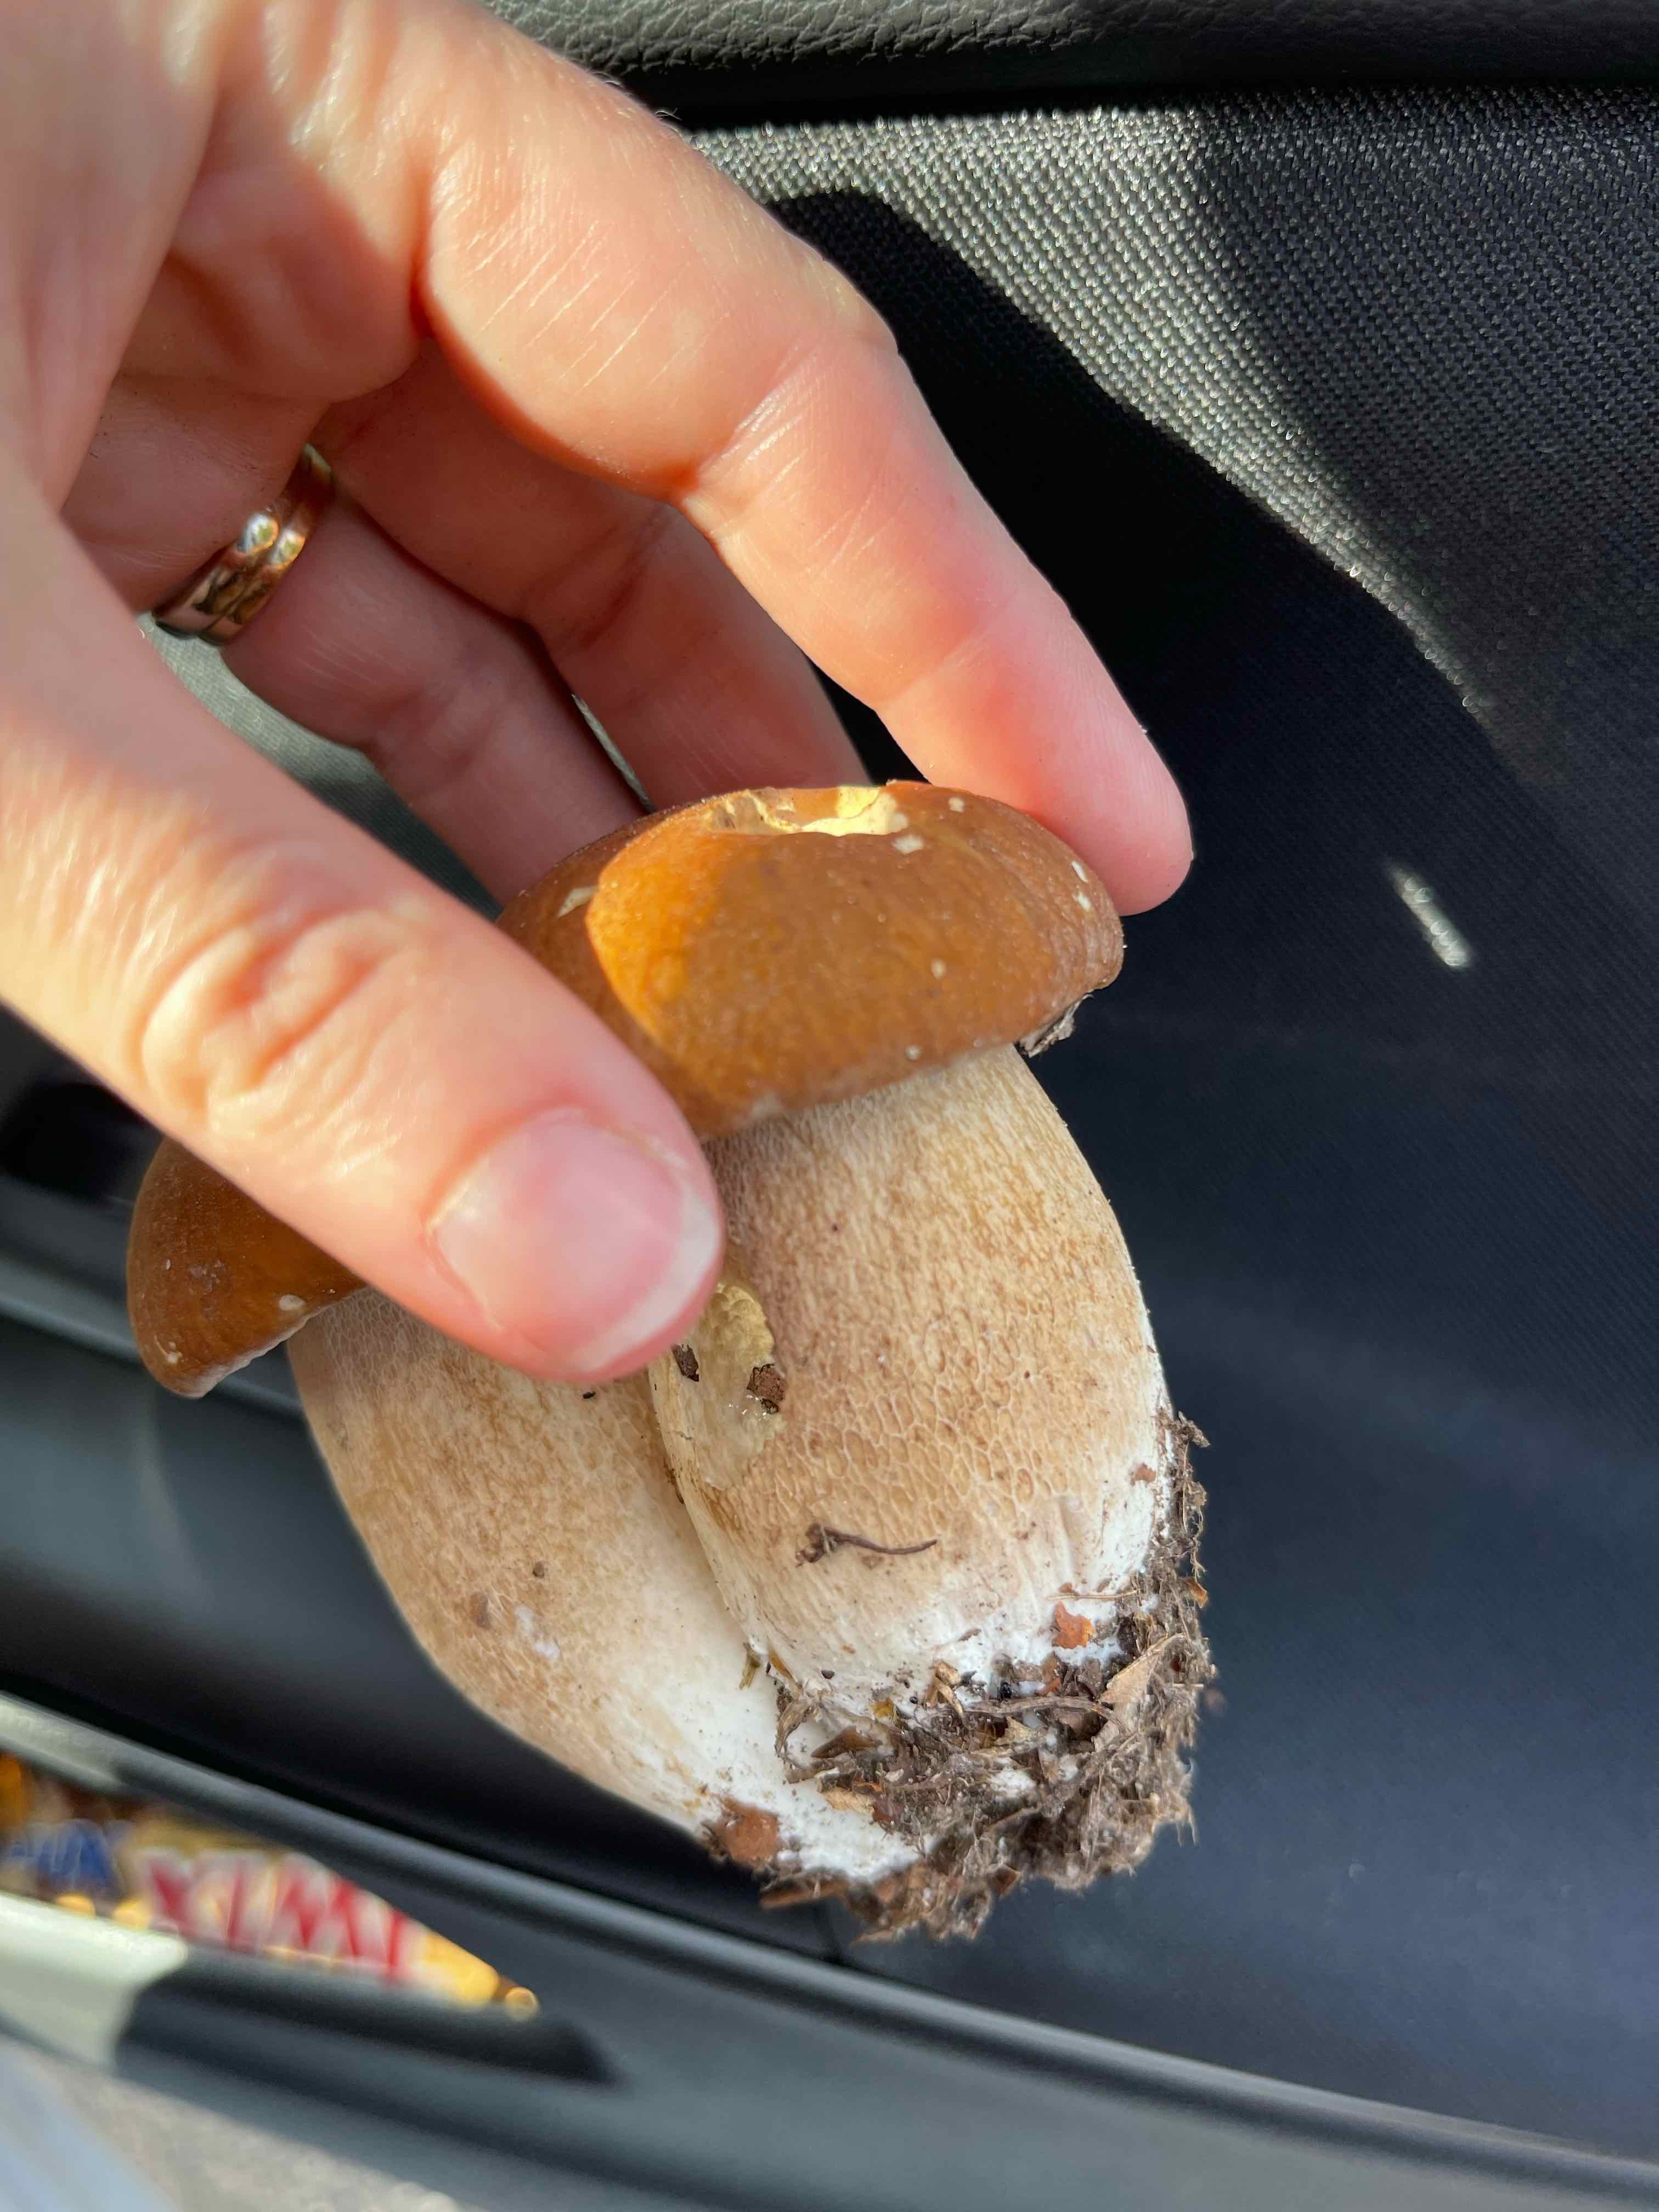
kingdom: Fungi
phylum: Basidiomycota
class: Agaricomycetes
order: Boletales
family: Boletaceae
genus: Boletus
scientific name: Boletus reticulatus
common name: sommer-rørhat
